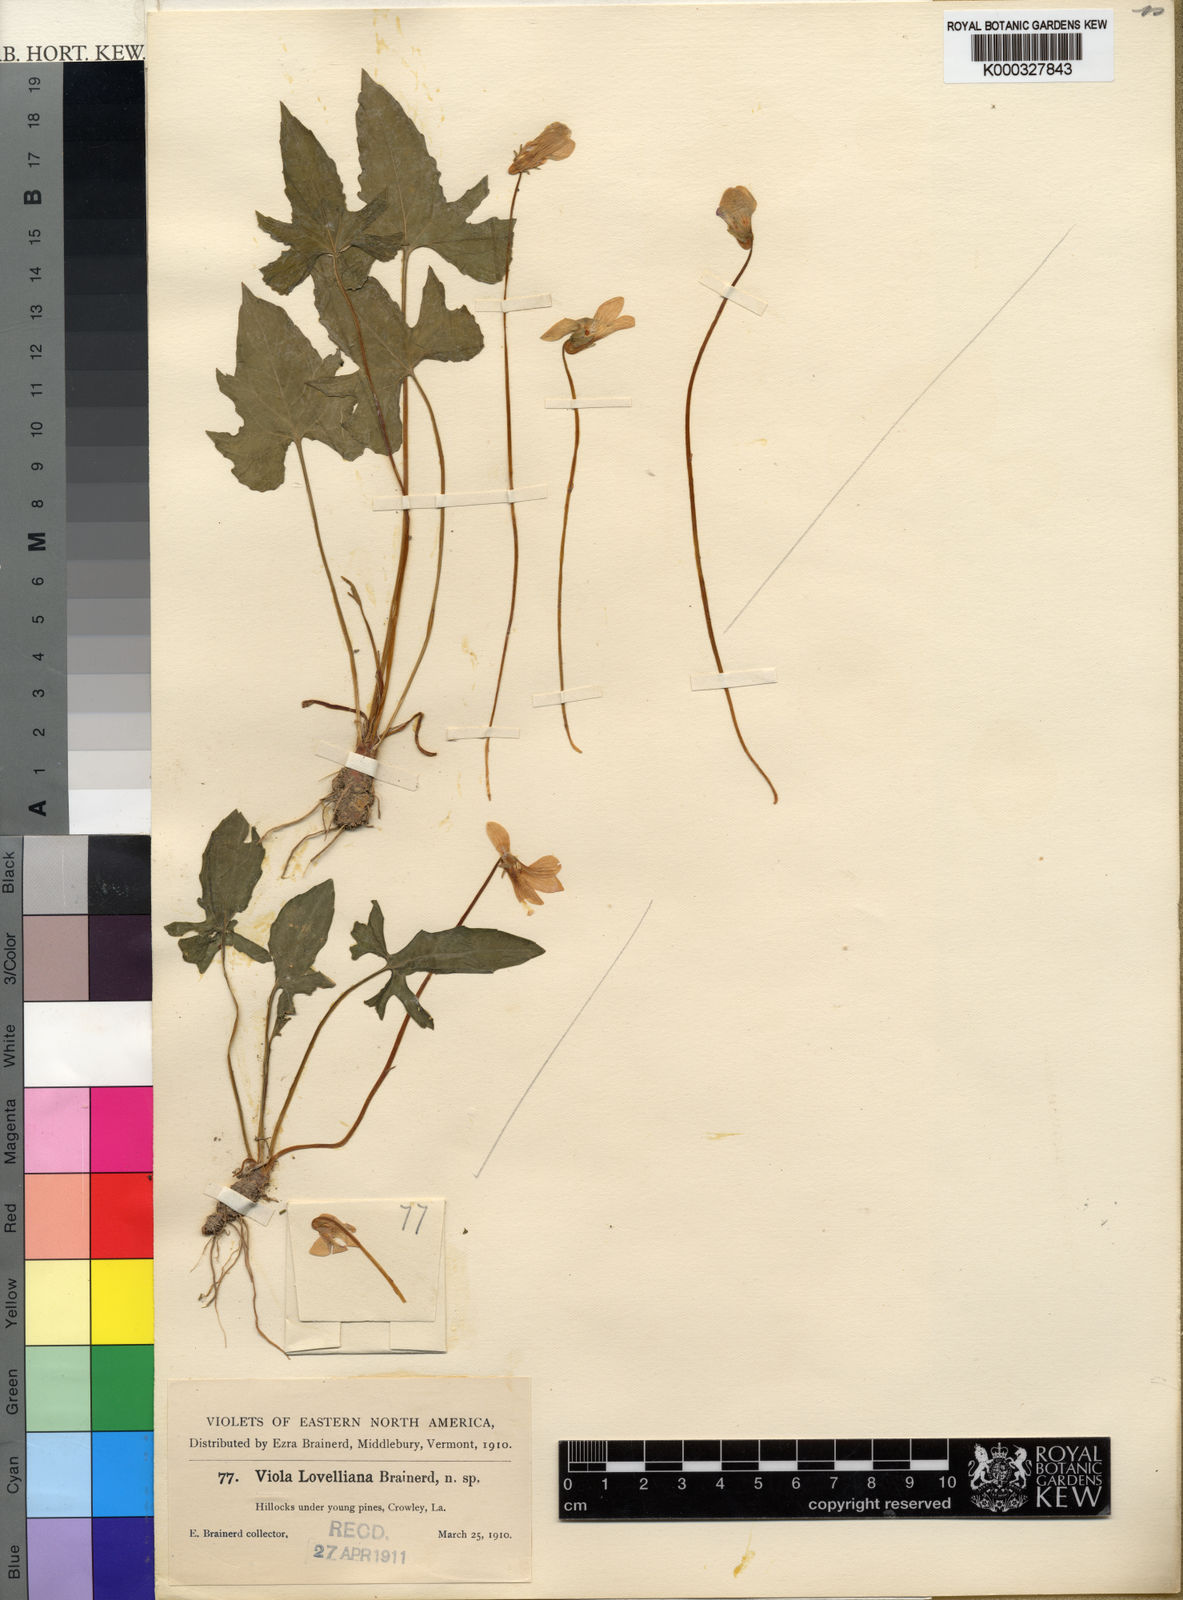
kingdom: Plantae
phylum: Tracheophyta
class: Magnoliopsida
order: Malpighiales
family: Violaceae
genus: Viola
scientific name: Viola lovelliana
